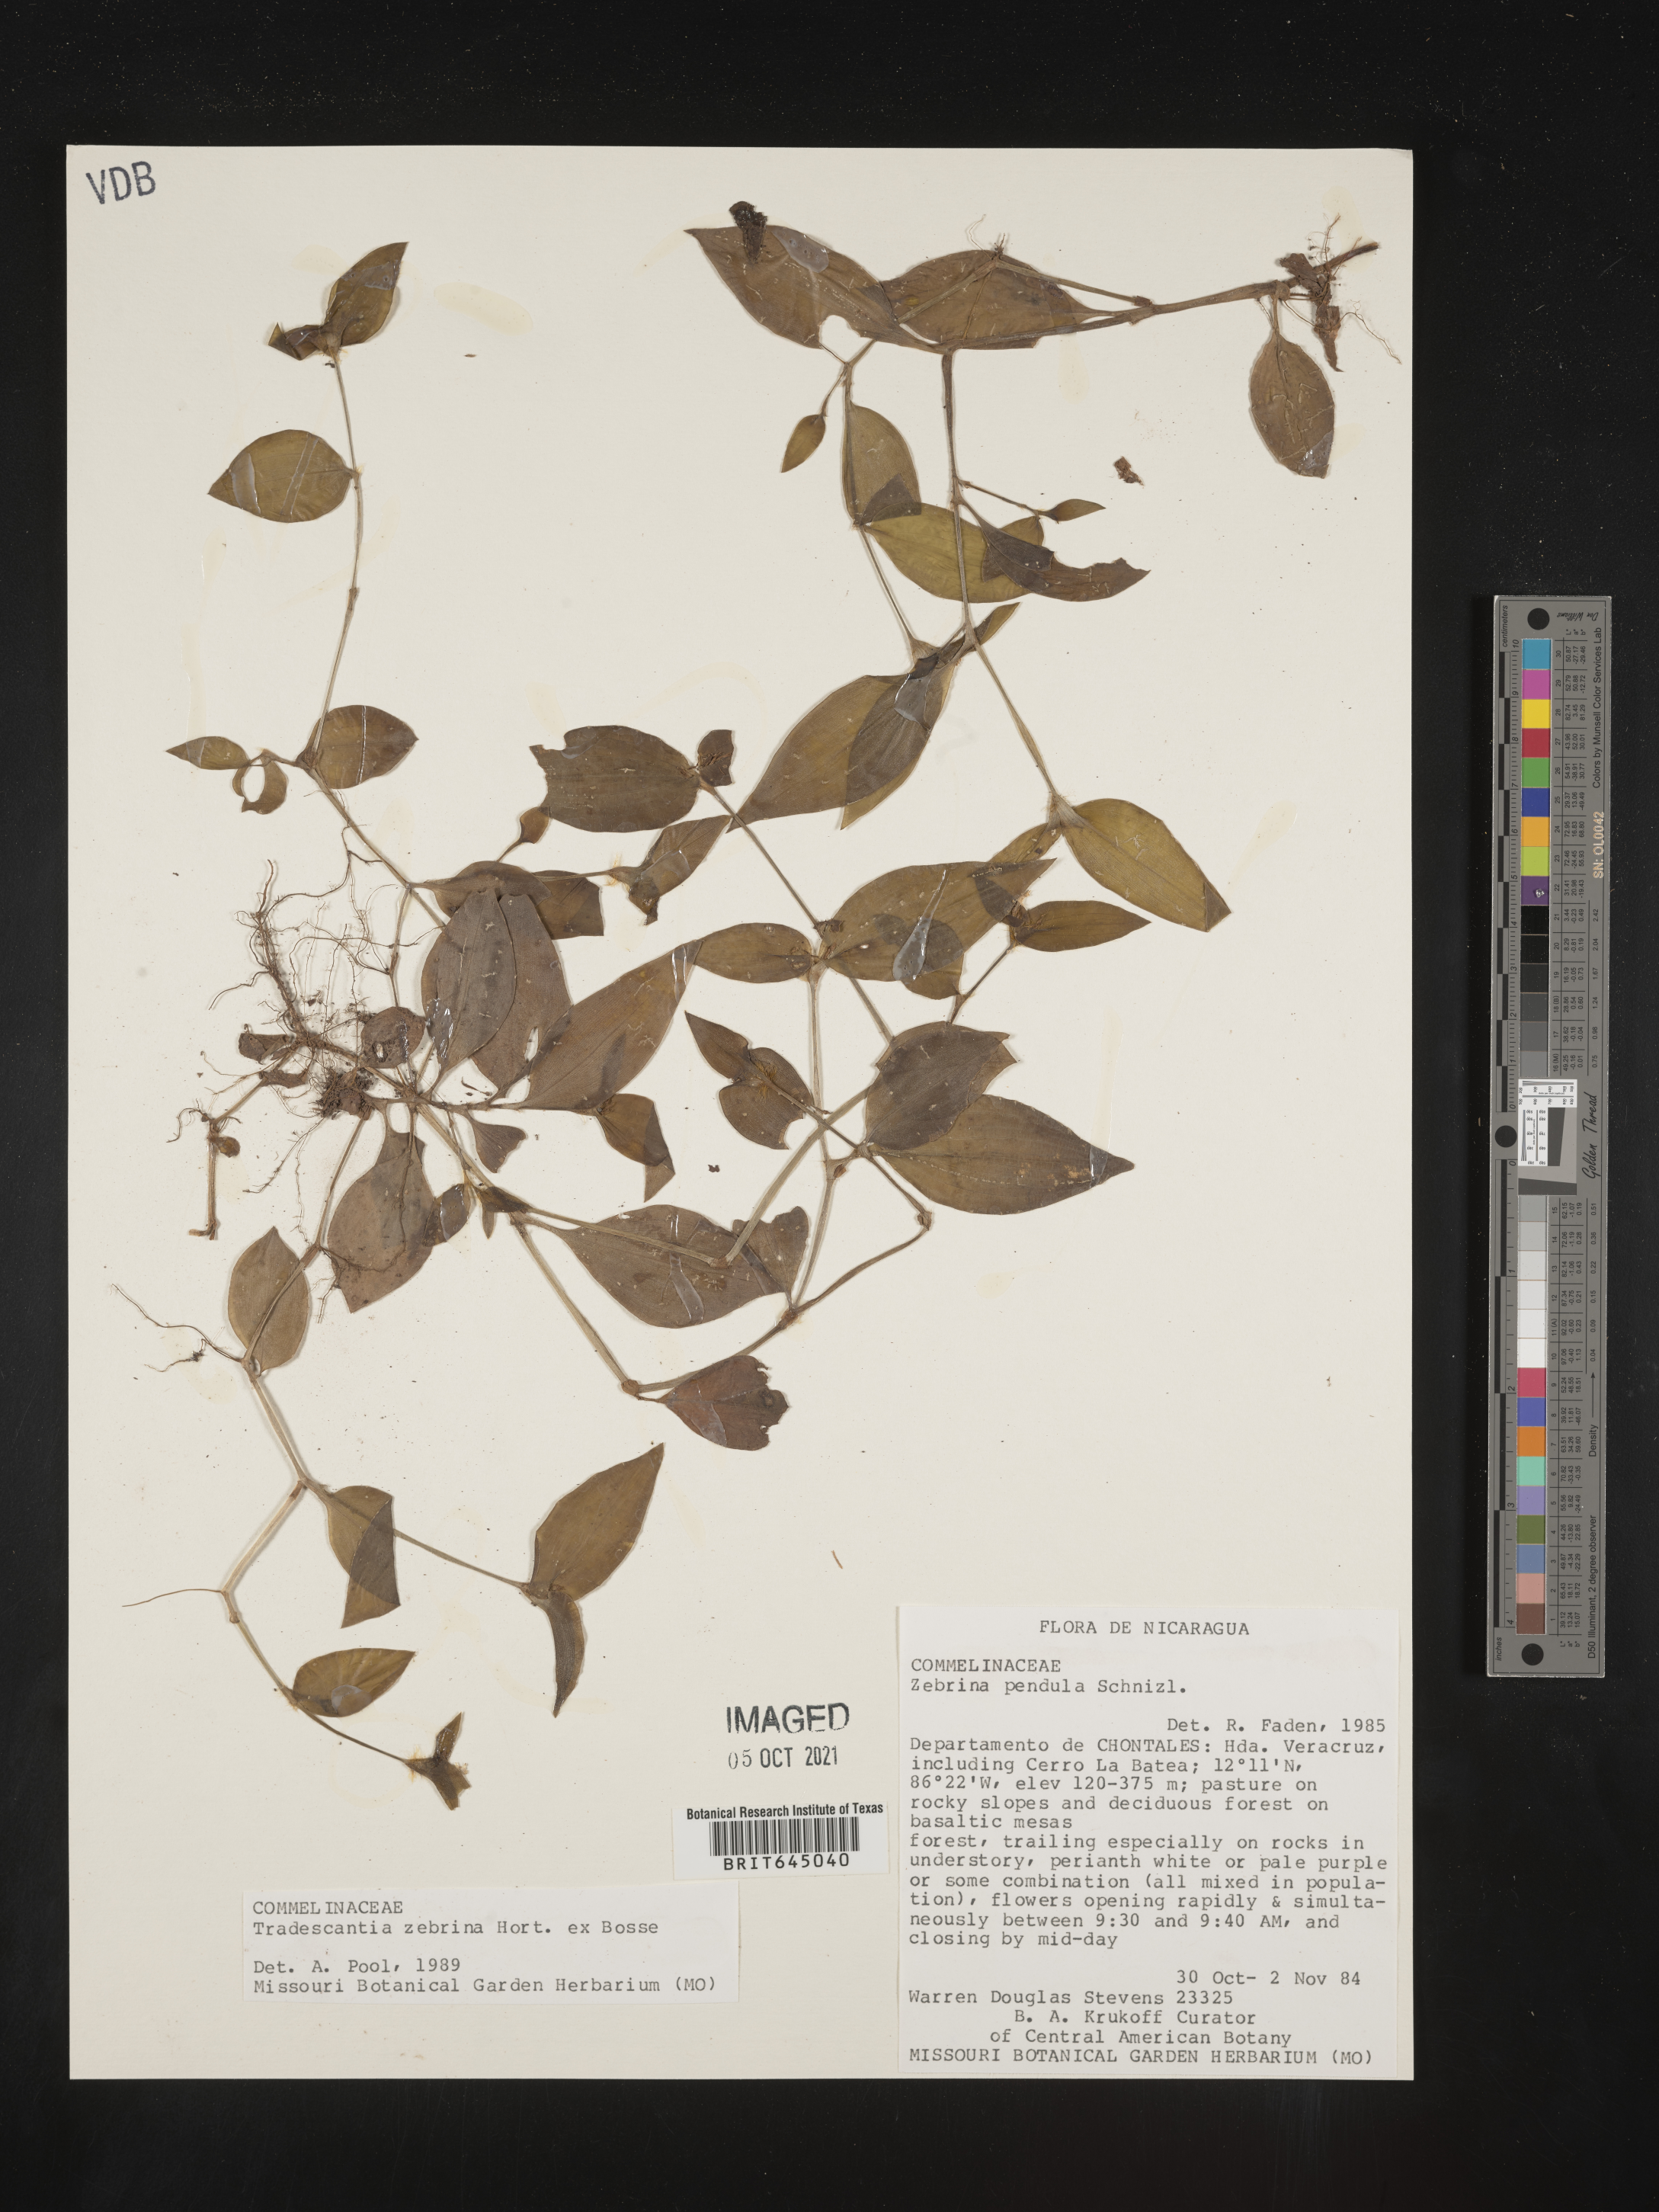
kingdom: Plantae
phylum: Tracheophyta
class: Liliopsida
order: Commelinales
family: Commelinaceae
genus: Tradescantia
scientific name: Tradescantia zebrina
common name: Inchplant
